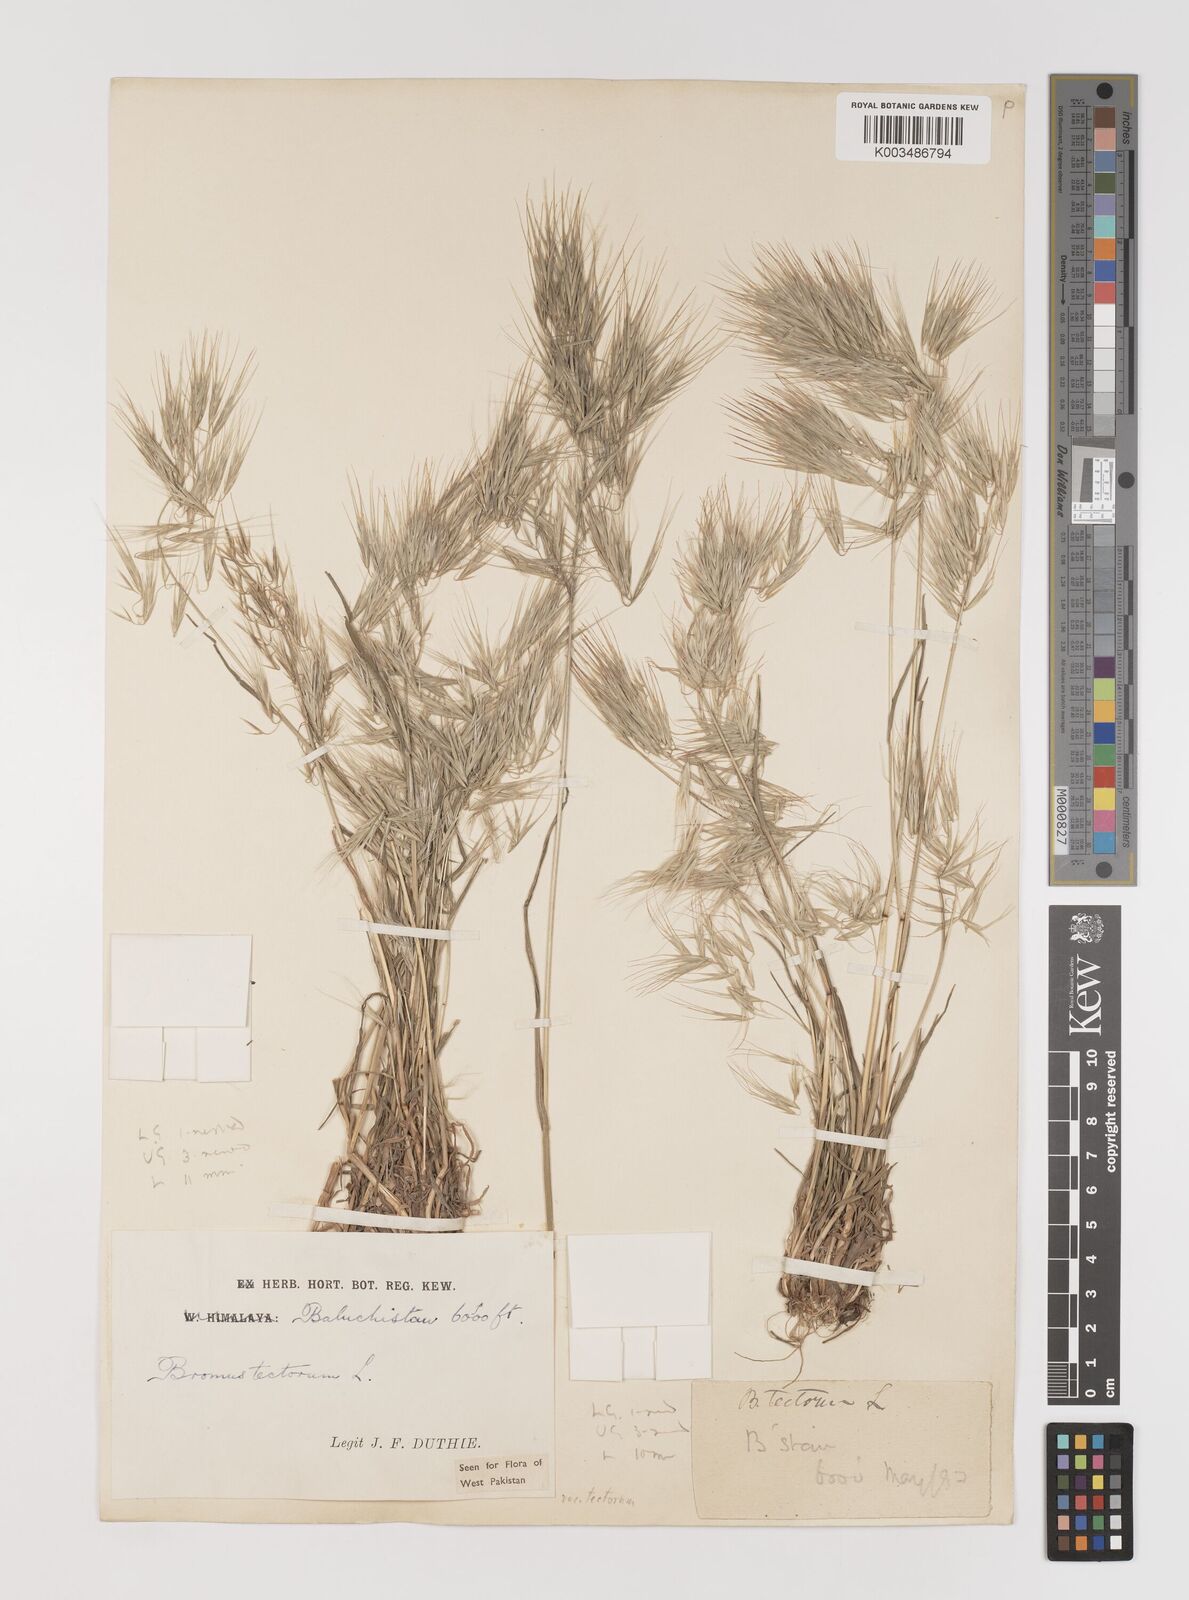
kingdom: Plantae
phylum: Tracheophyta
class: Liliopsida
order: Poales
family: Poaceae
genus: Bromus
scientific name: Bromus tectorum
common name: Cheatgrass
